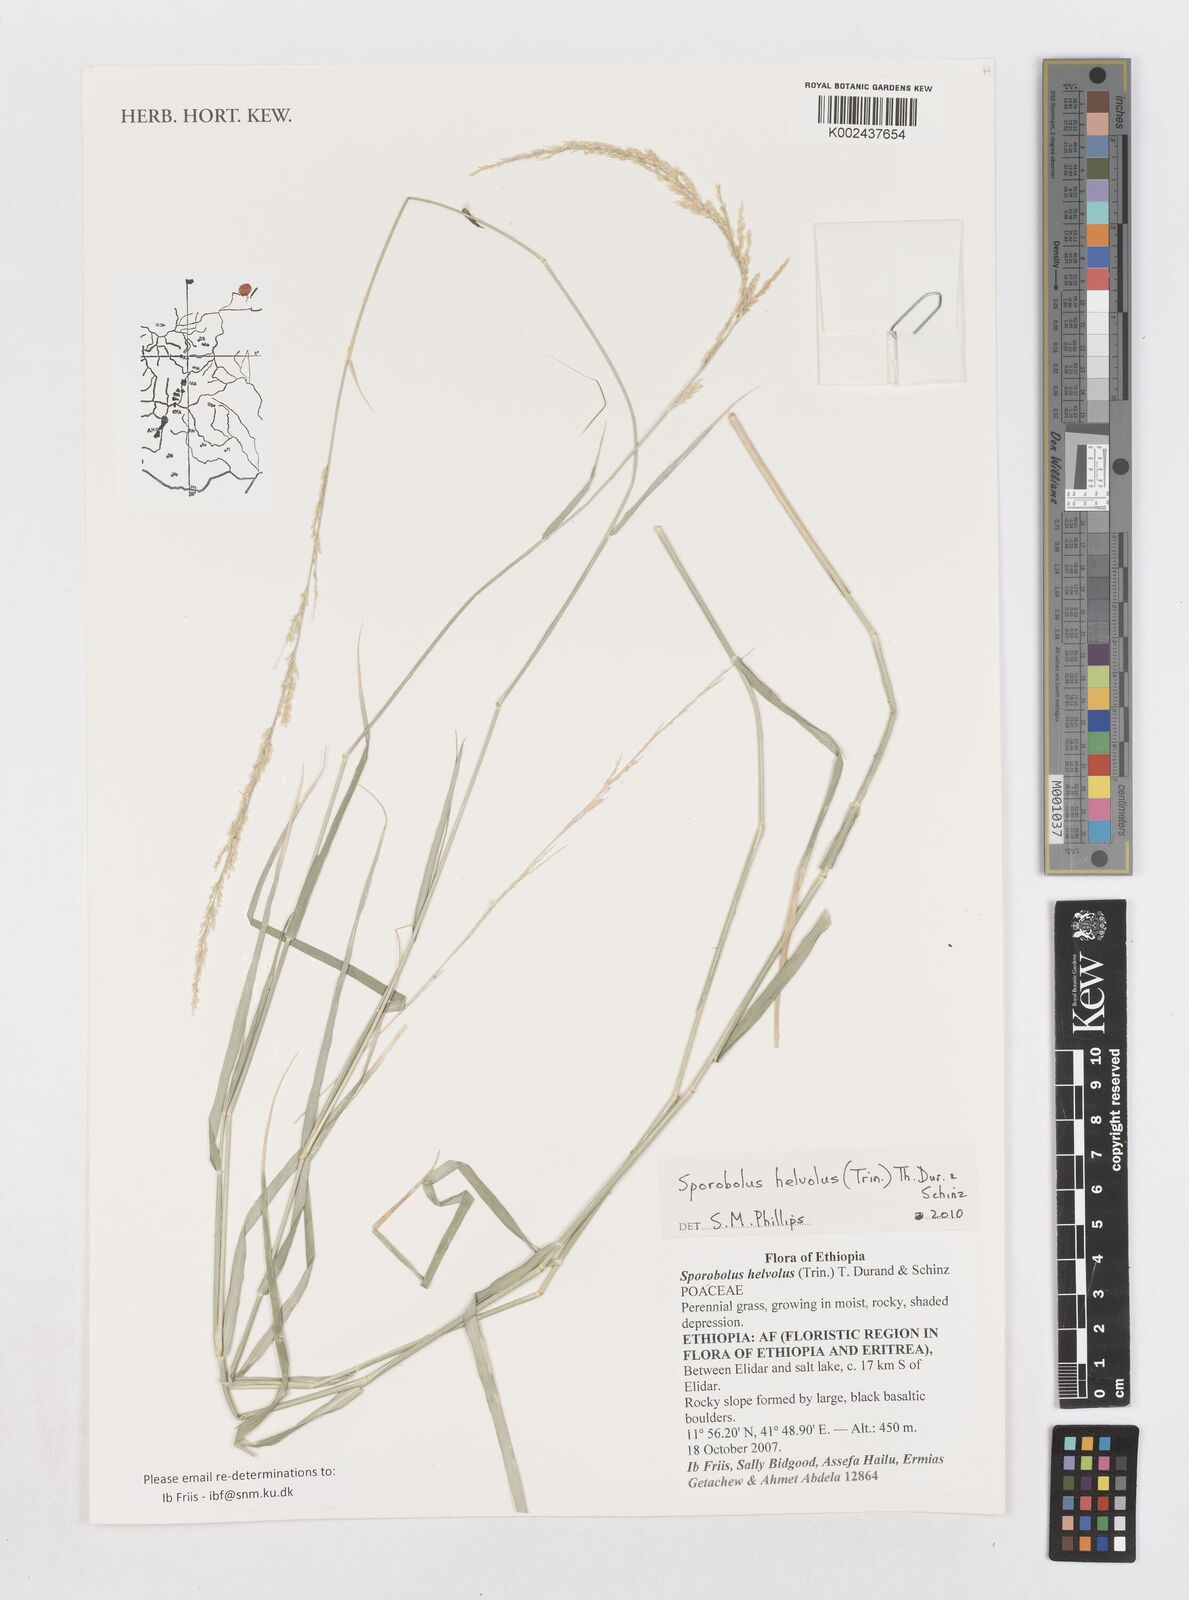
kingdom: Plantae
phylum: Tracheophyta
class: Liliopsida
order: Poales
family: Poaceae
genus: Sporobolus
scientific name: Sporobolus helvolus
